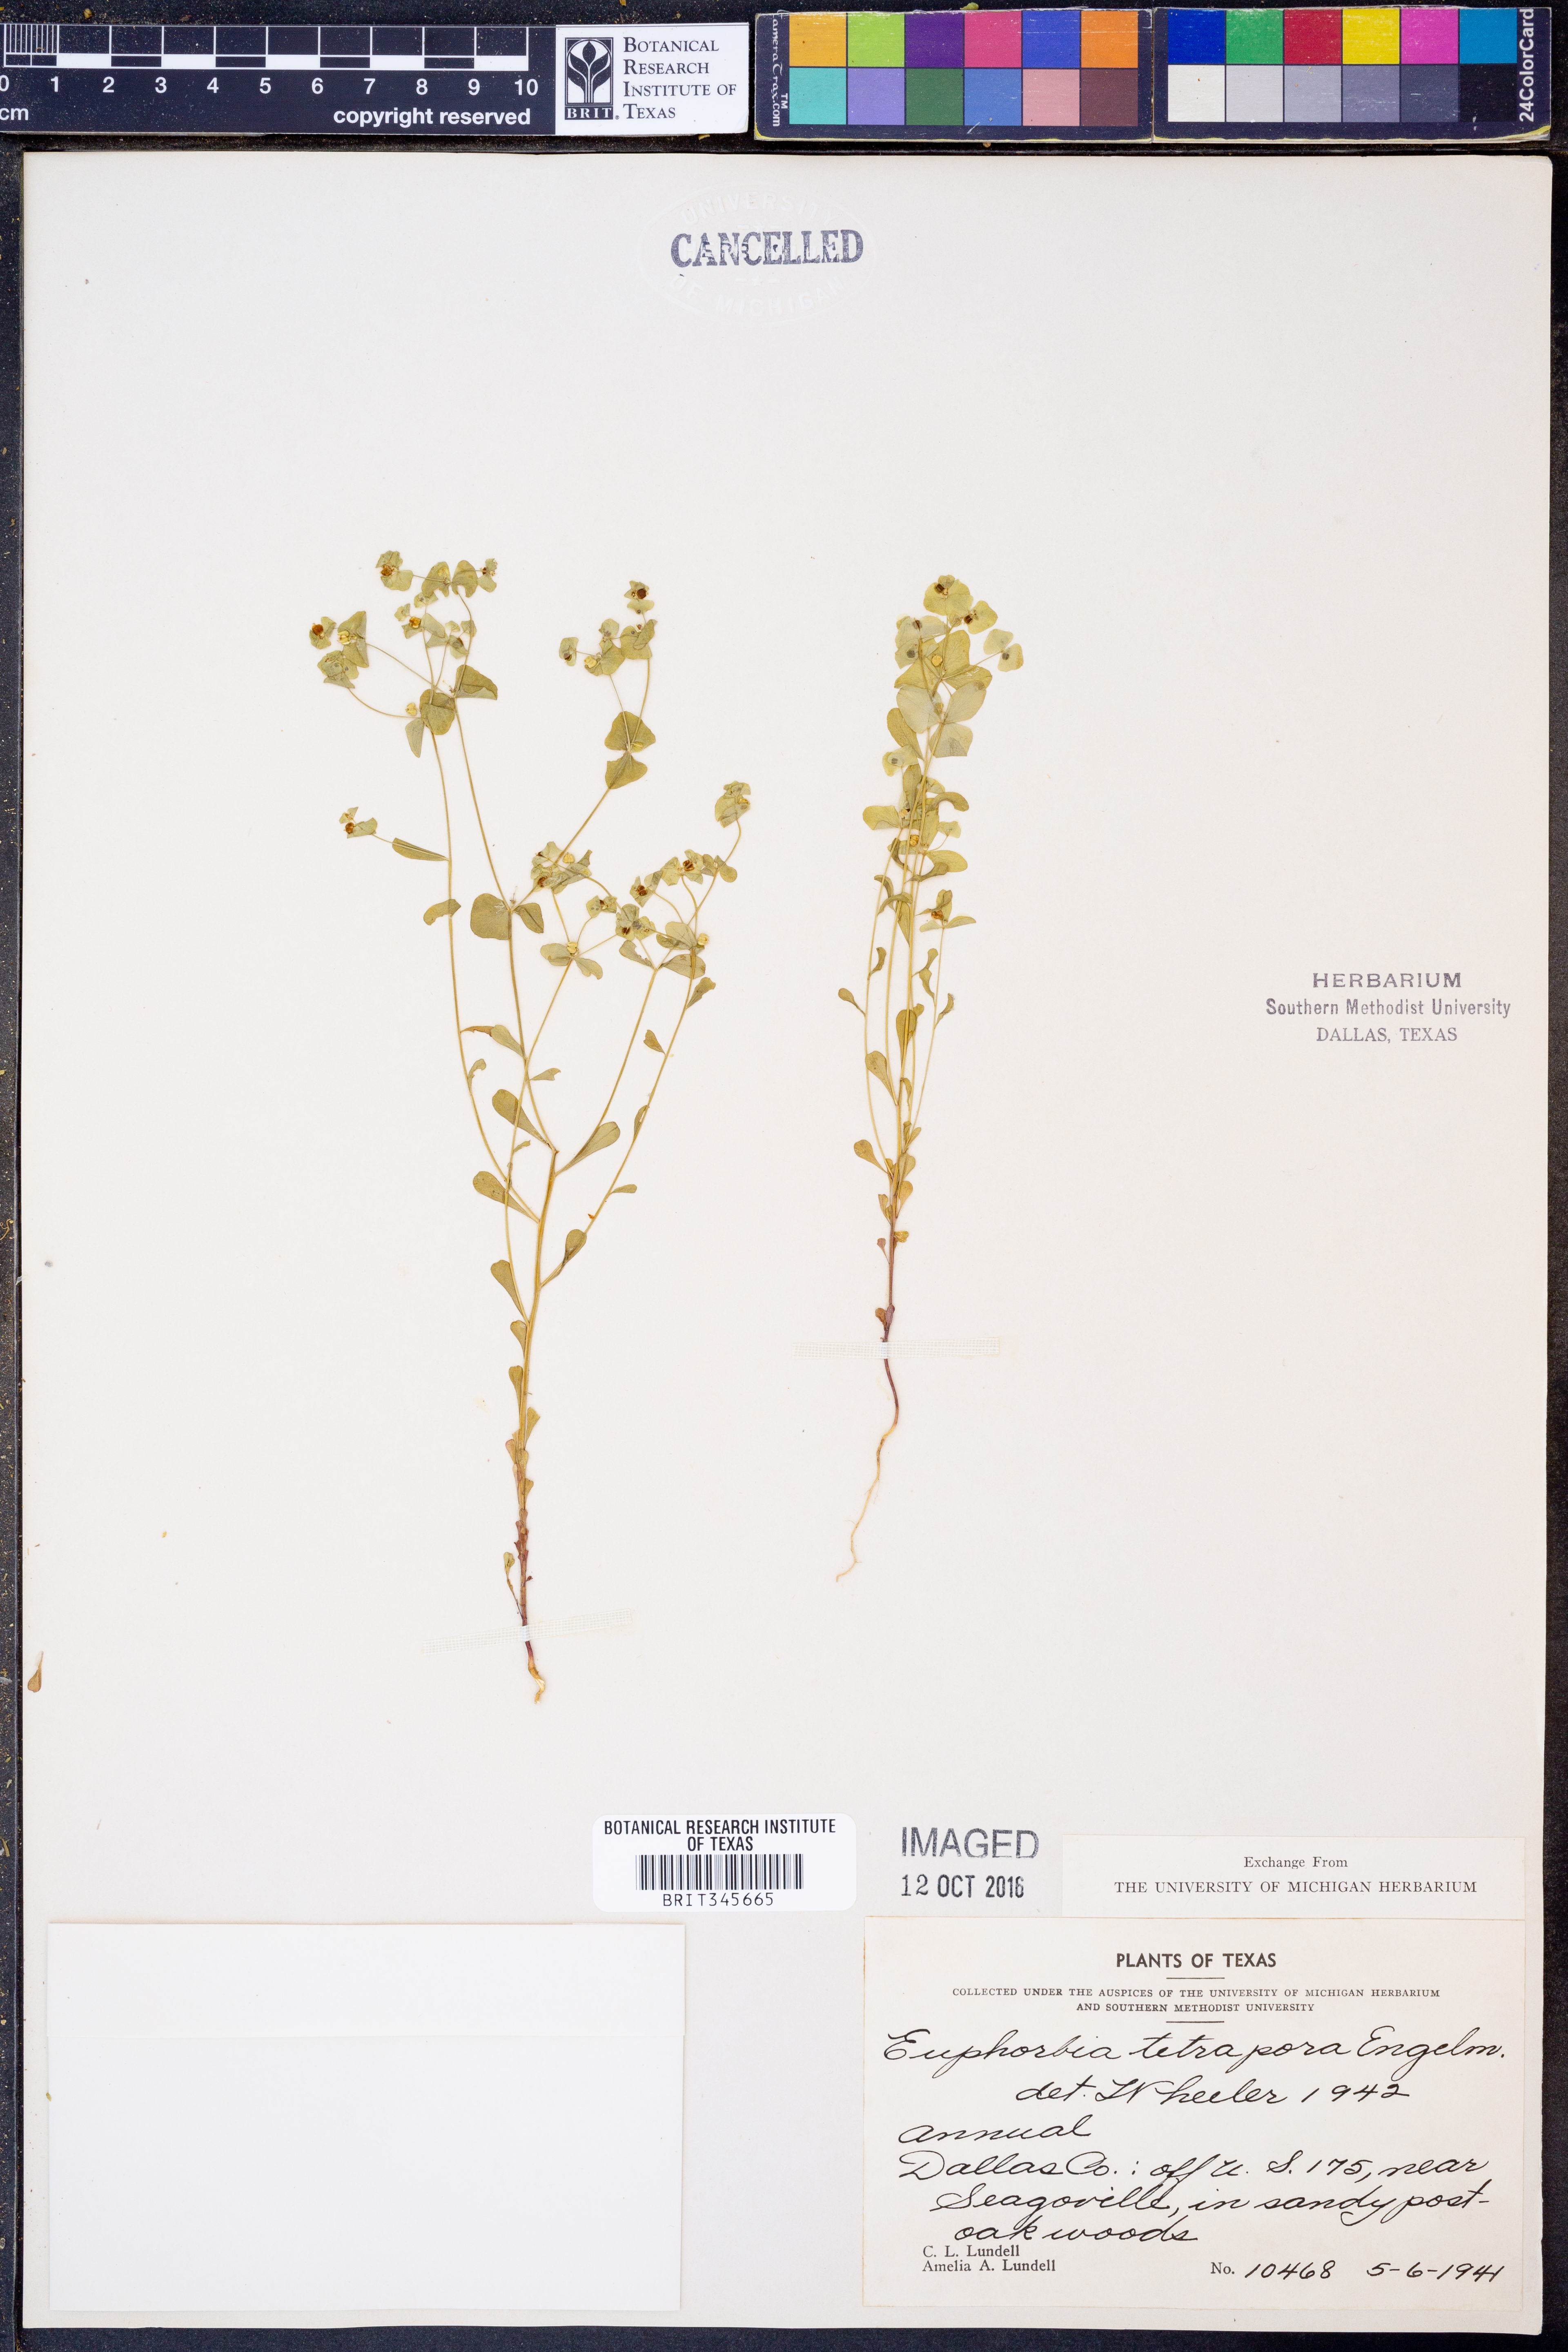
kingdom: Plantae
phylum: Tracheophyta
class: Magnoliopsida
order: Malpighiales
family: Euphorbiaceae
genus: Euphorbia
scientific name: Euphorbia tetrapora
